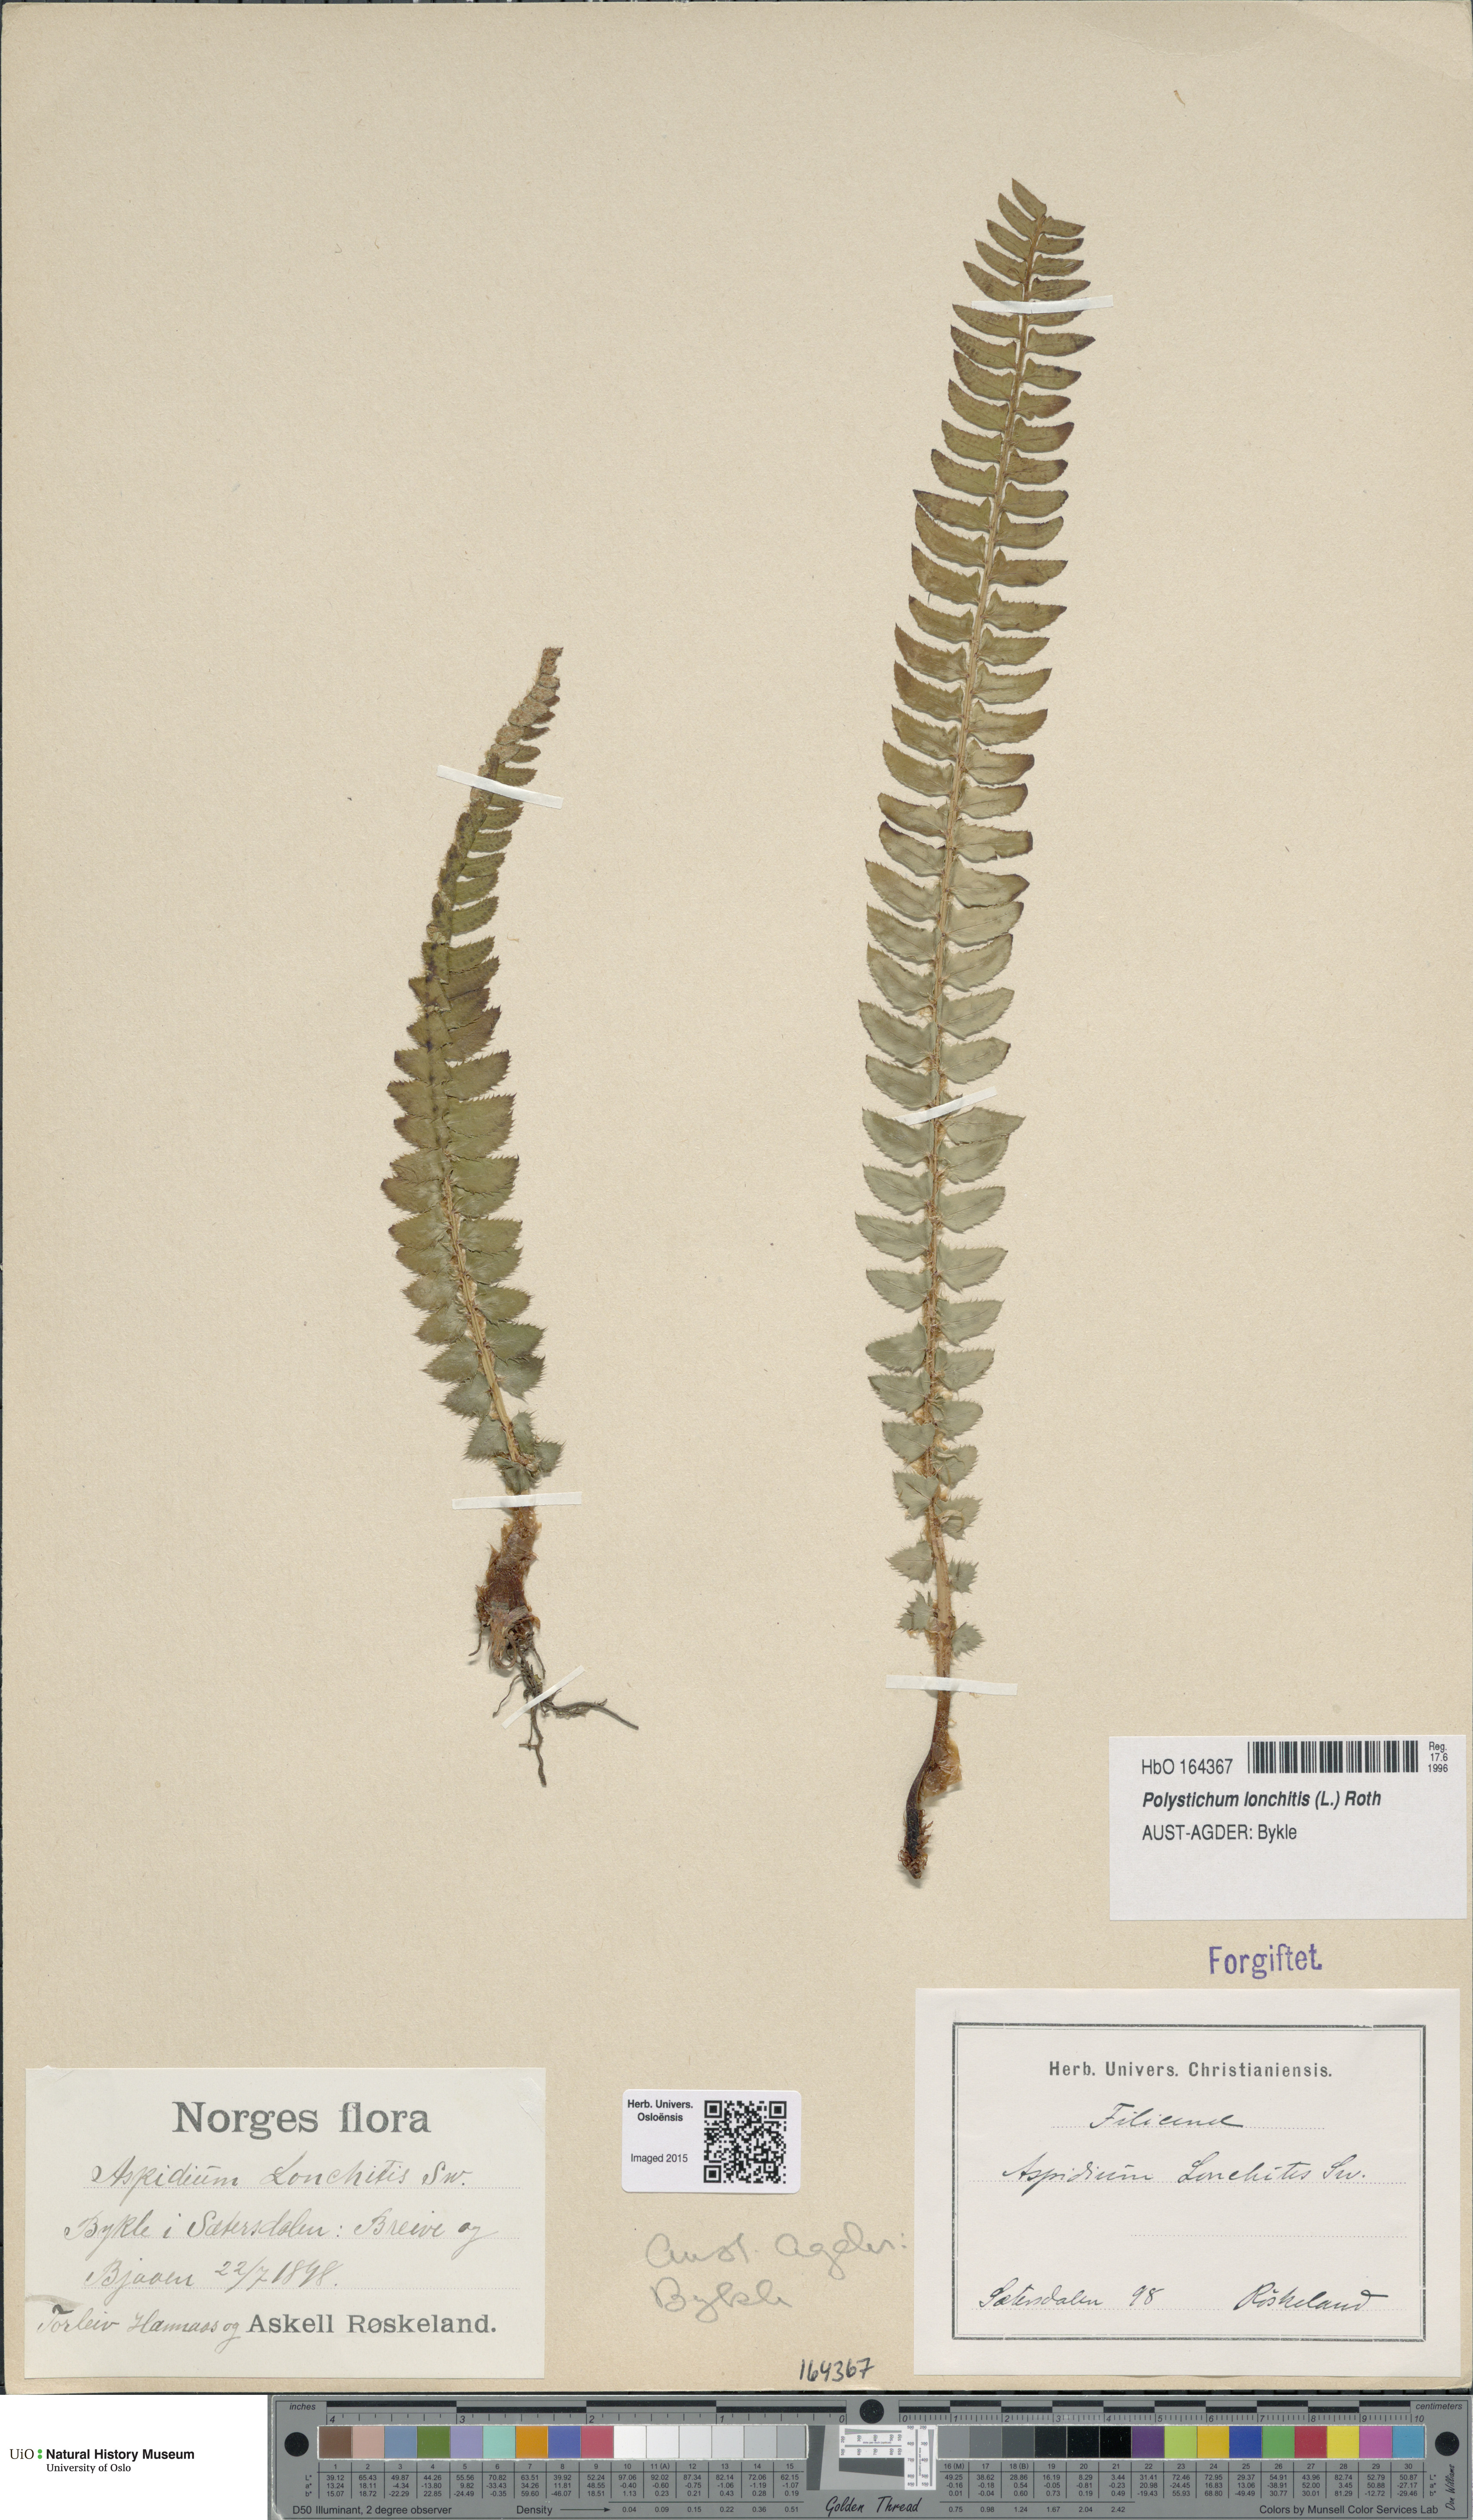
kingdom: Plantae
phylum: Tracheophyta
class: Polypodiopsida
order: Polypodiales
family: Dryopteridaceae
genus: Polystichum
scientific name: Polystichum lonchitis
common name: Holly fern
